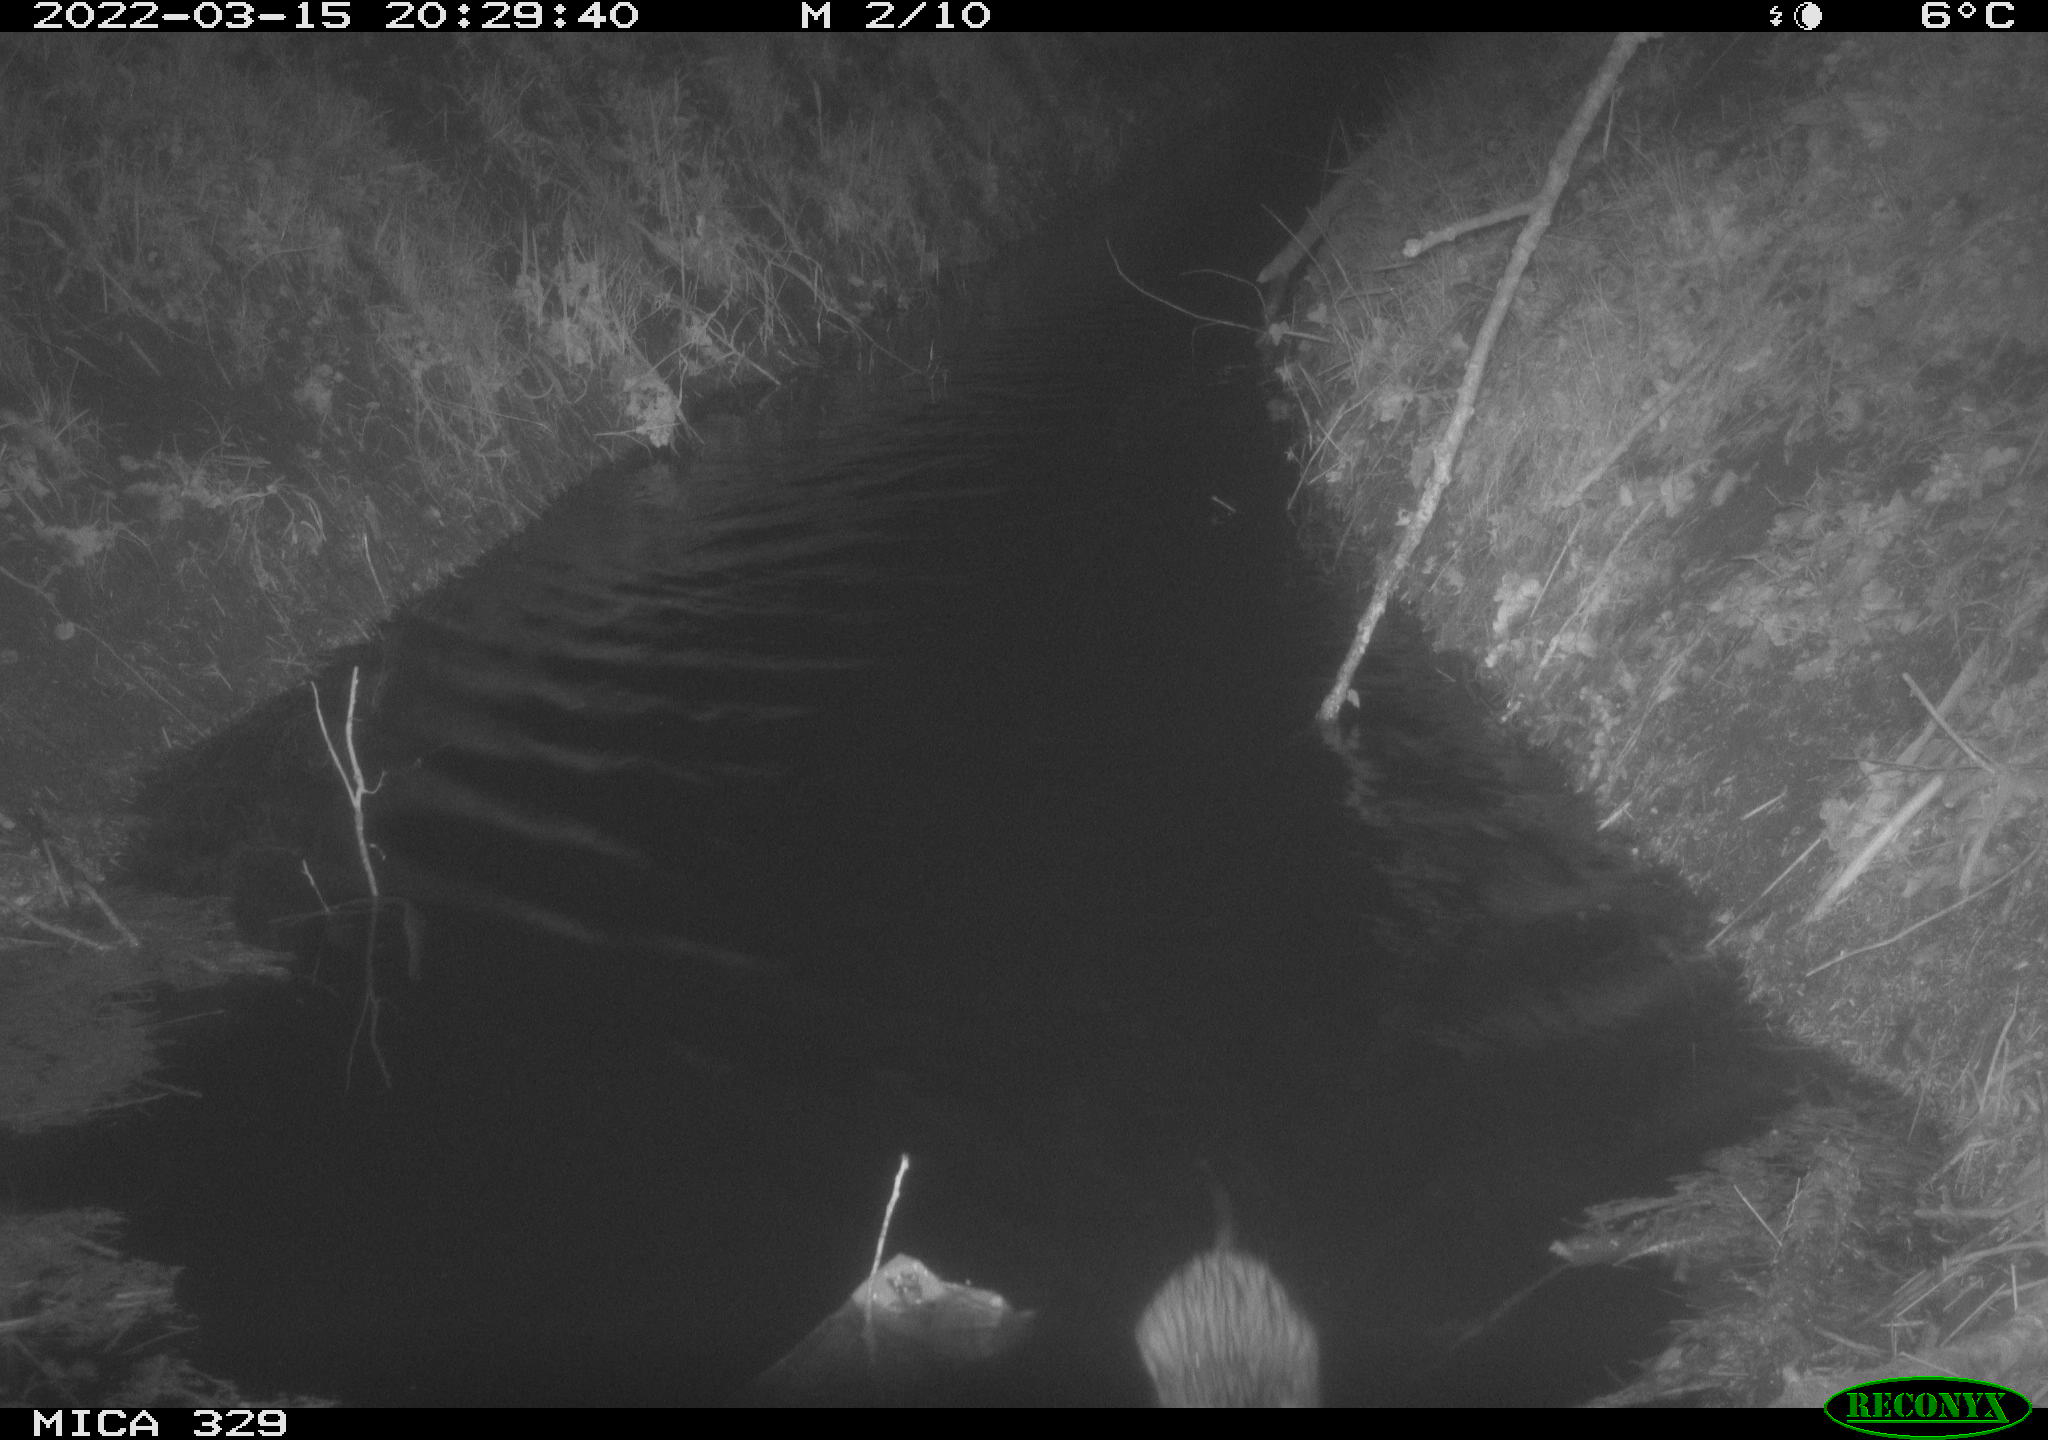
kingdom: Animalia
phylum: Chordata
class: Mammalia
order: Rodentia
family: Cricetidae
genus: Ondatra
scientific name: Ondatra zibethicus
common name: Muskrat
